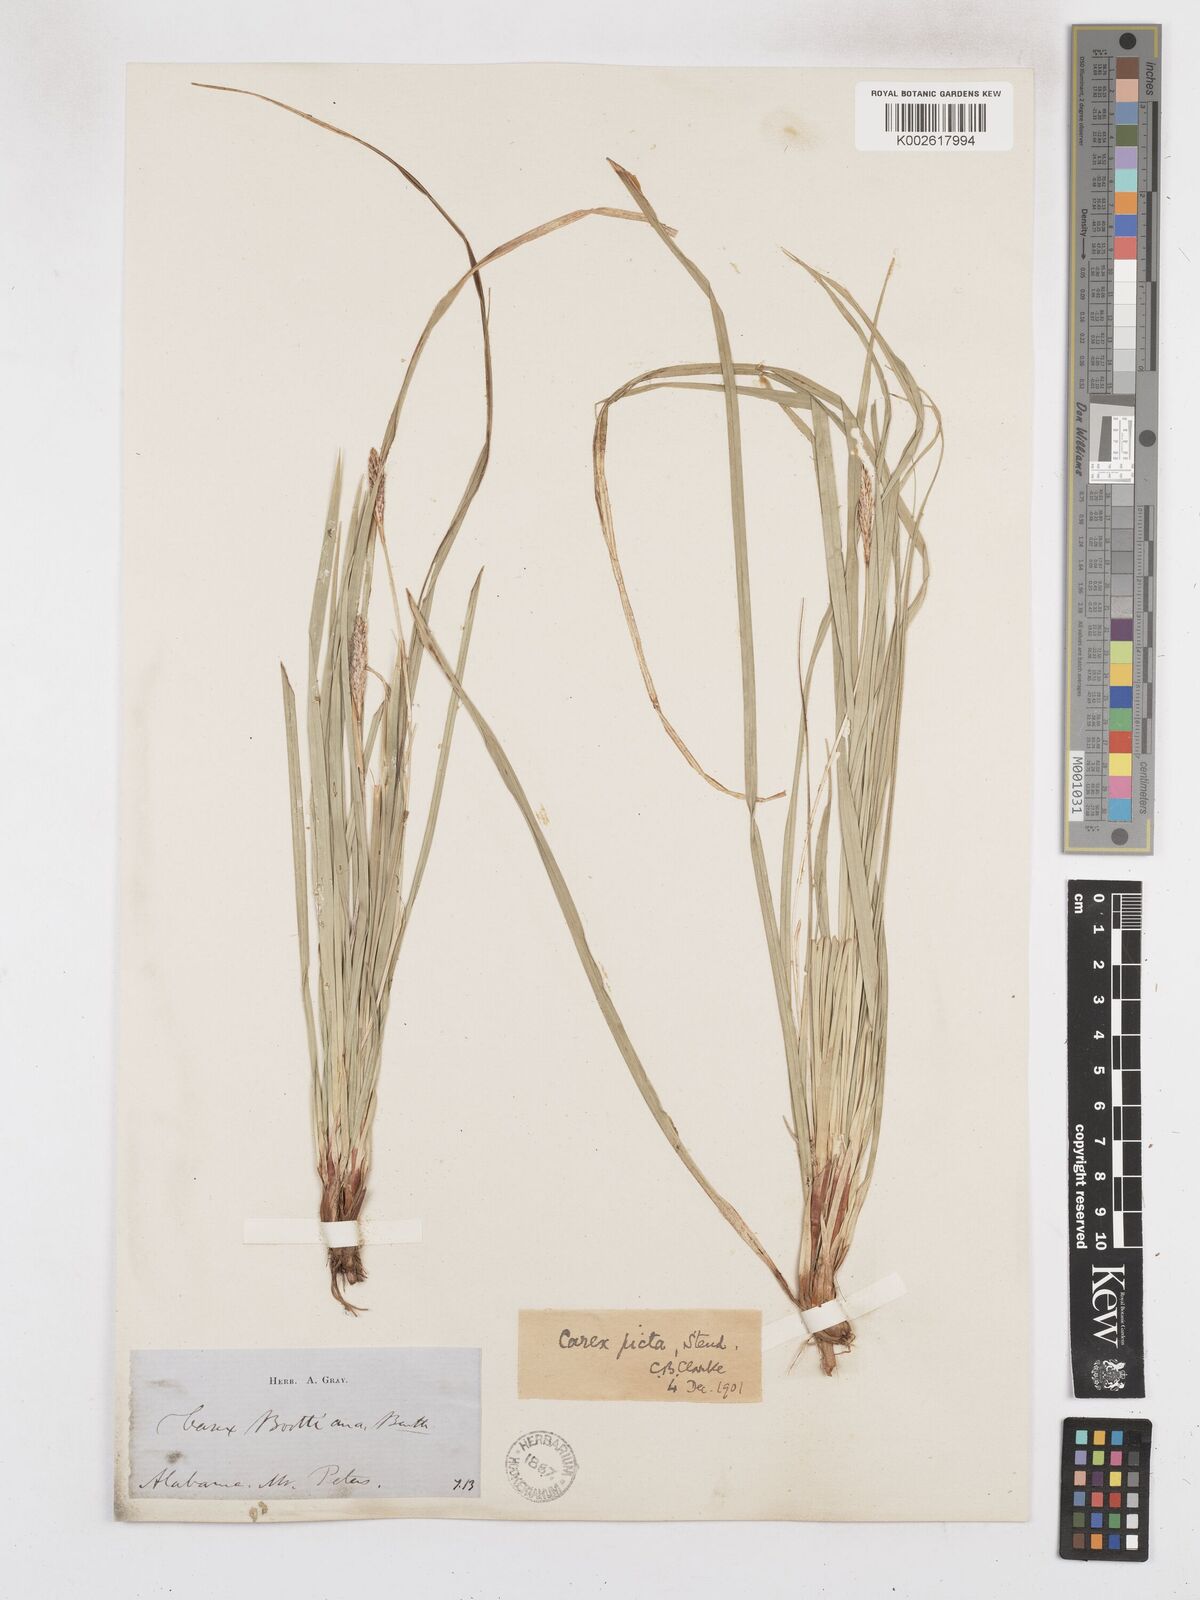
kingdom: Plantae
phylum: Tracheophyta
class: Liliopsida
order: Poales
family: Cyperaceae
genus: Carex
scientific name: Carex picta
